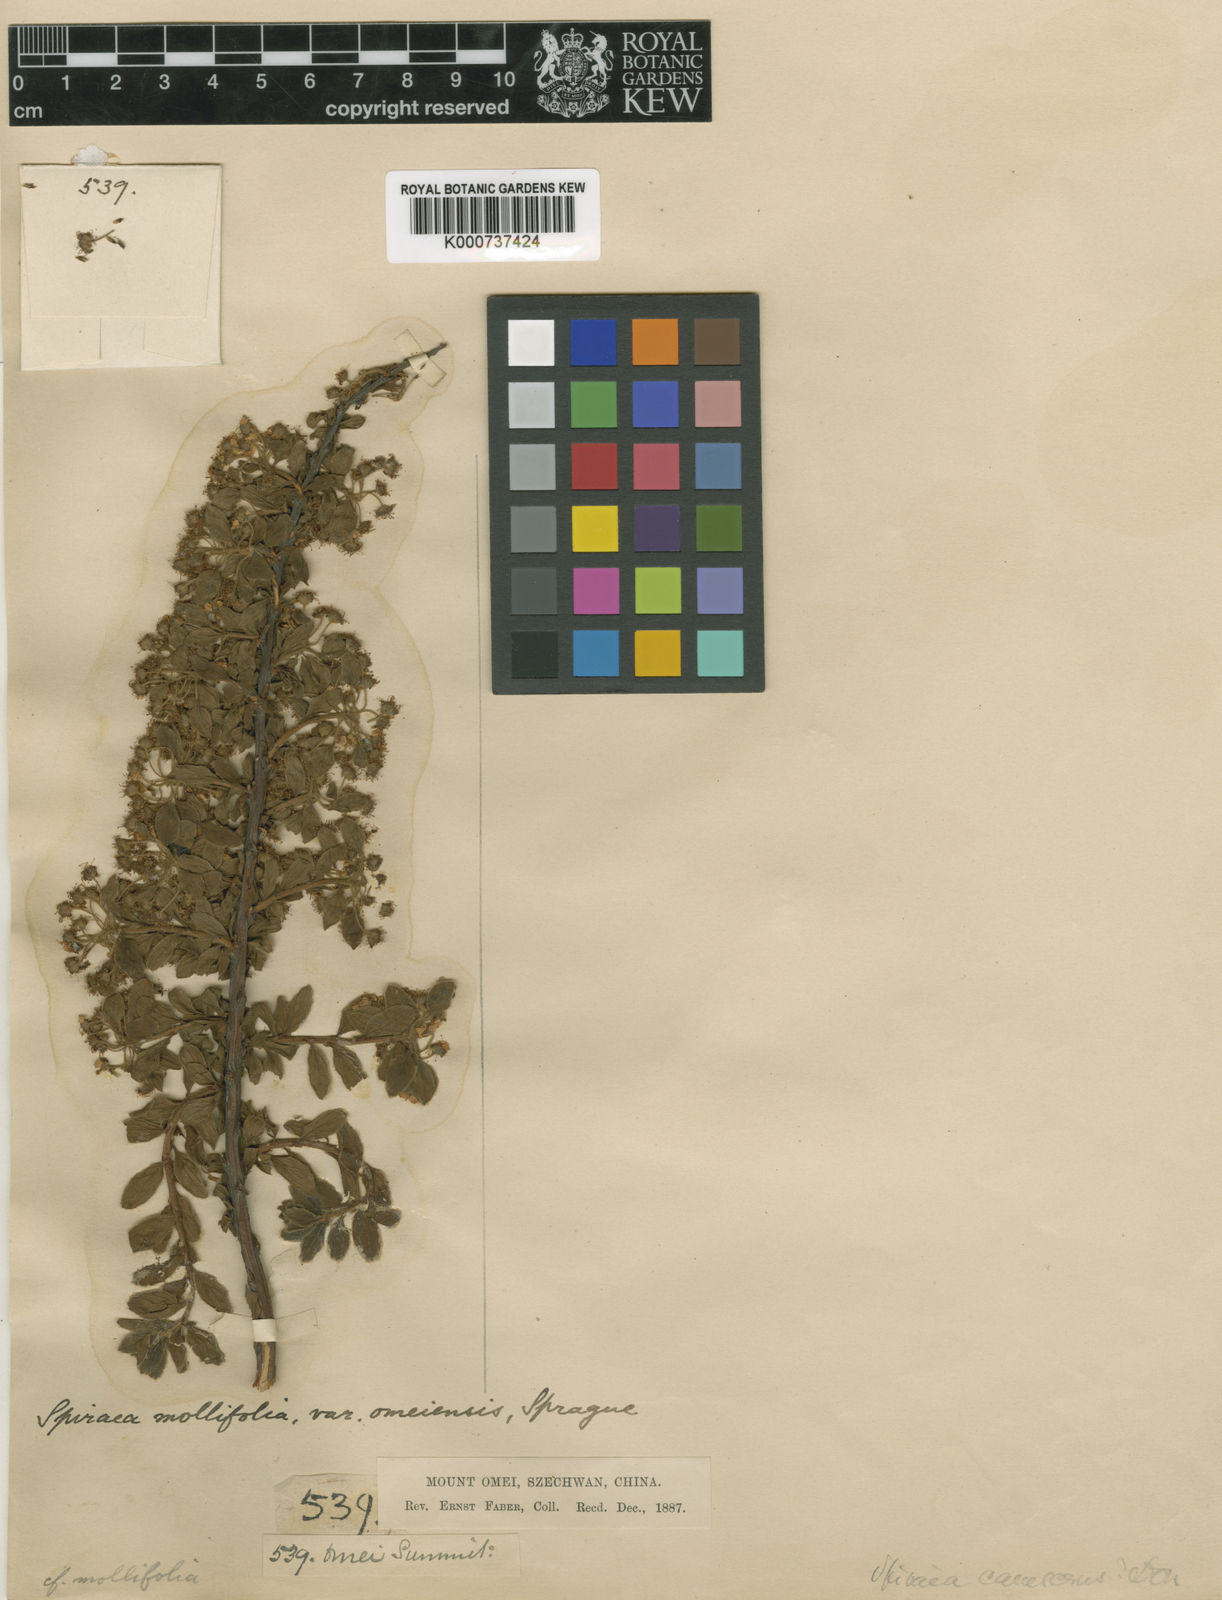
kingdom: Plantae
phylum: Tracheophyta
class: Magnoliopsida
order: Rosales
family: Rosaceae
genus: Spiraea
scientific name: Spiraea mollifolia
